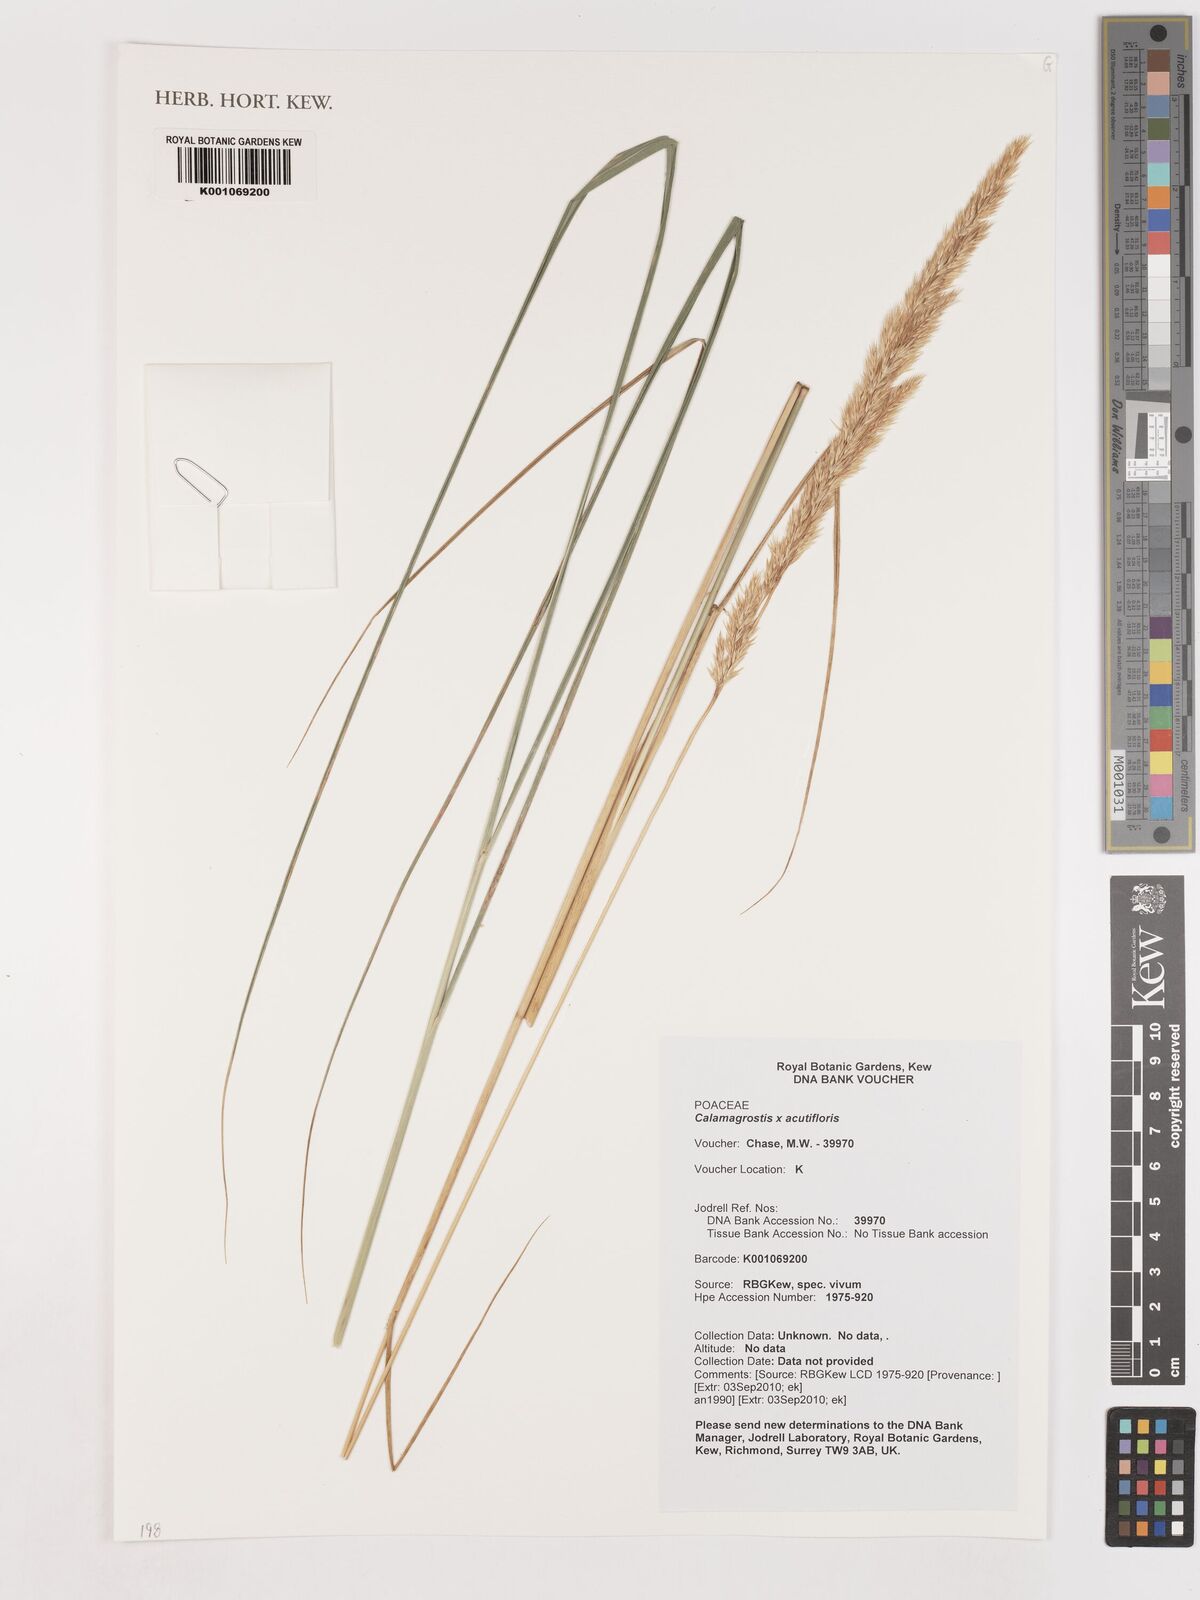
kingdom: Plantae
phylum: Tracheophyta
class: Liliopsida
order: Poales
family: Poaceae
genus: Calamagrostis
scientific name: Calamagrostis acutiflora
